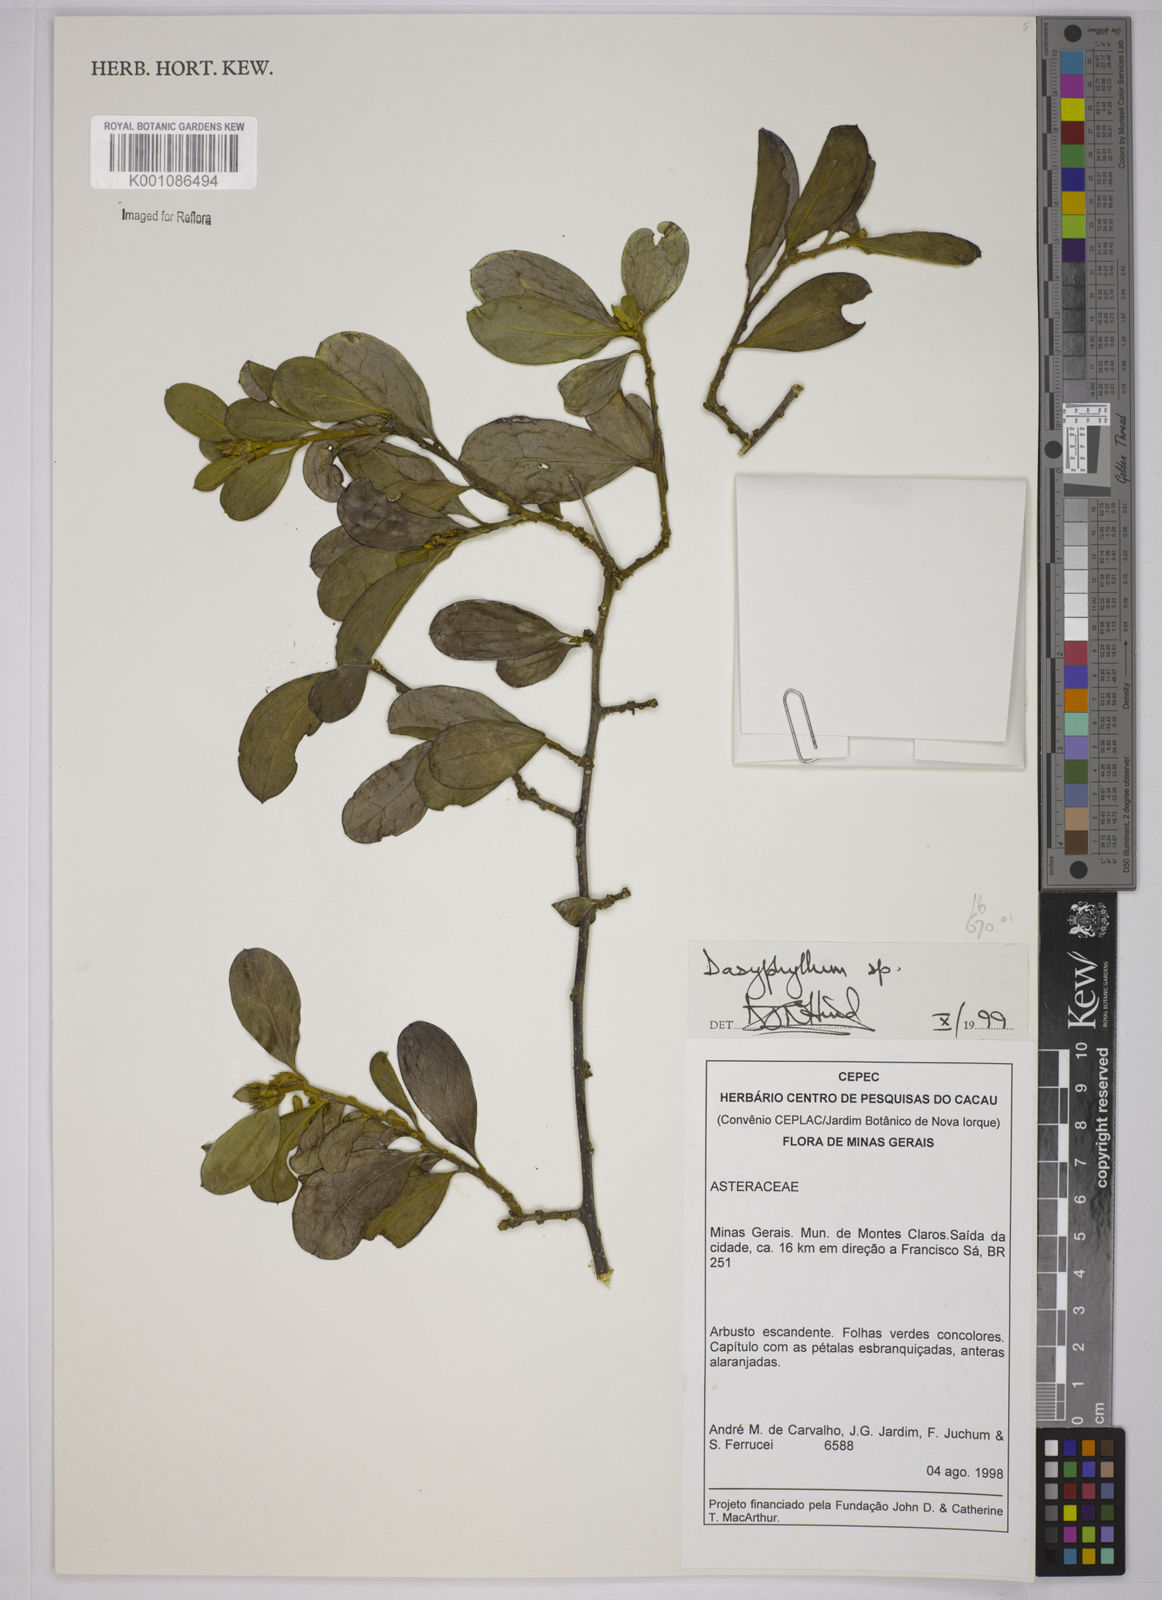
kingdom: Plantae
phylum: Tracheophyta
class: Magnoliopsida
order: Asterales
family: Asteraceae
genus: Dasyphyllum
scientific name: Dasyphyllum
